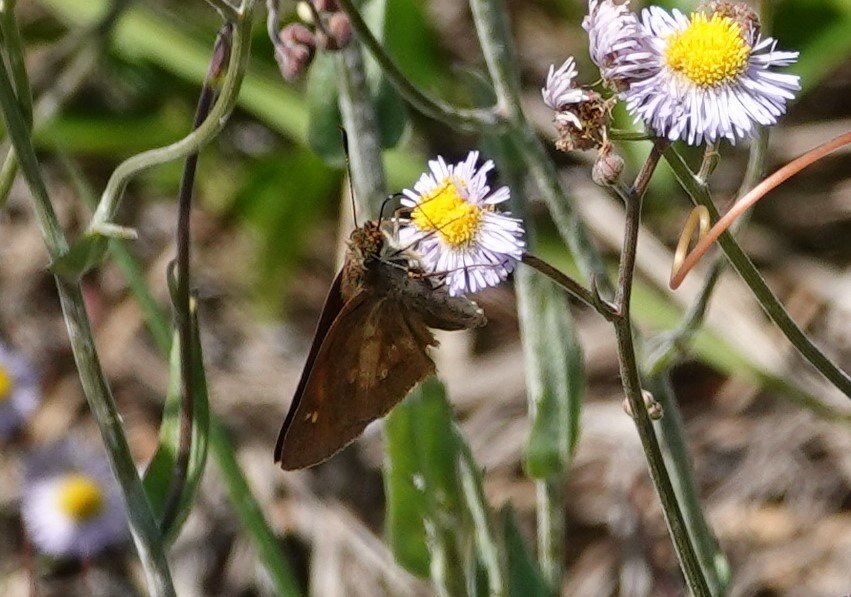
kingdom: Animalia
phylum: Arthropoda
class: Insecta
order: Lepidoptera
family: Papilionidae
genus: Pterourus
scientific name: Pterourus palamedes
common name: Palamedes Swallowtail
